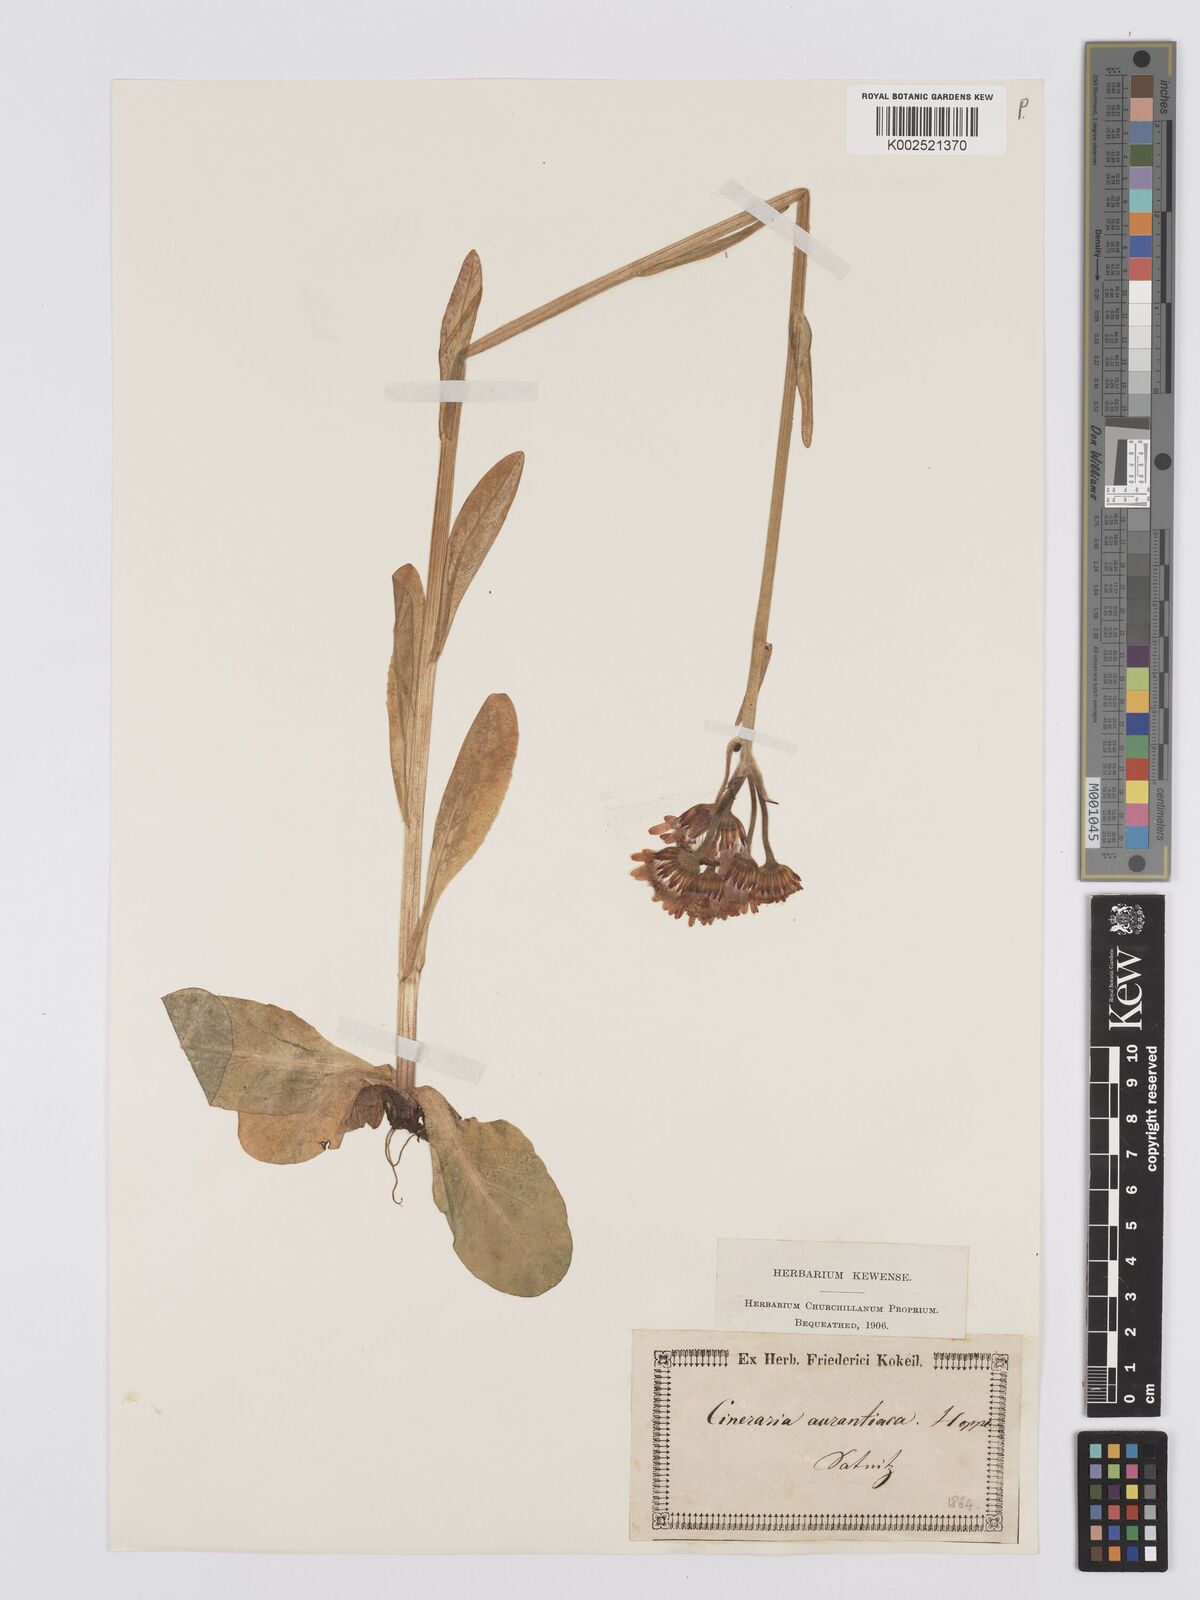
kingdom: Plantae
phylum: Tracheophyta
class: Magnoliopsida
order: Asterales
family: Asteraceae
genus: Tephroseris
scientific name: Tephroseris aurantiaca
